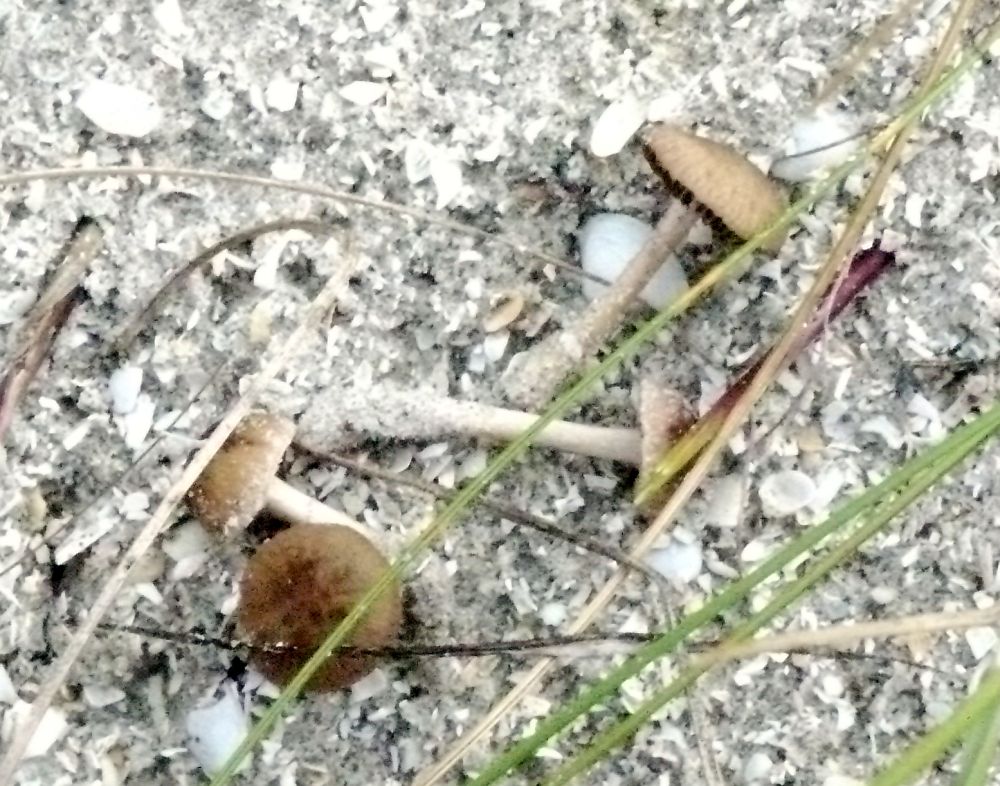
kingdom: Fungi
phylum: Basidiomycota
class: Agaricomycetes
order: Agaricales
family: Psathyrellaceae
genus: Psathyrella
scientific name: Psathyrella ammophila
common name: klit-mørkhat
